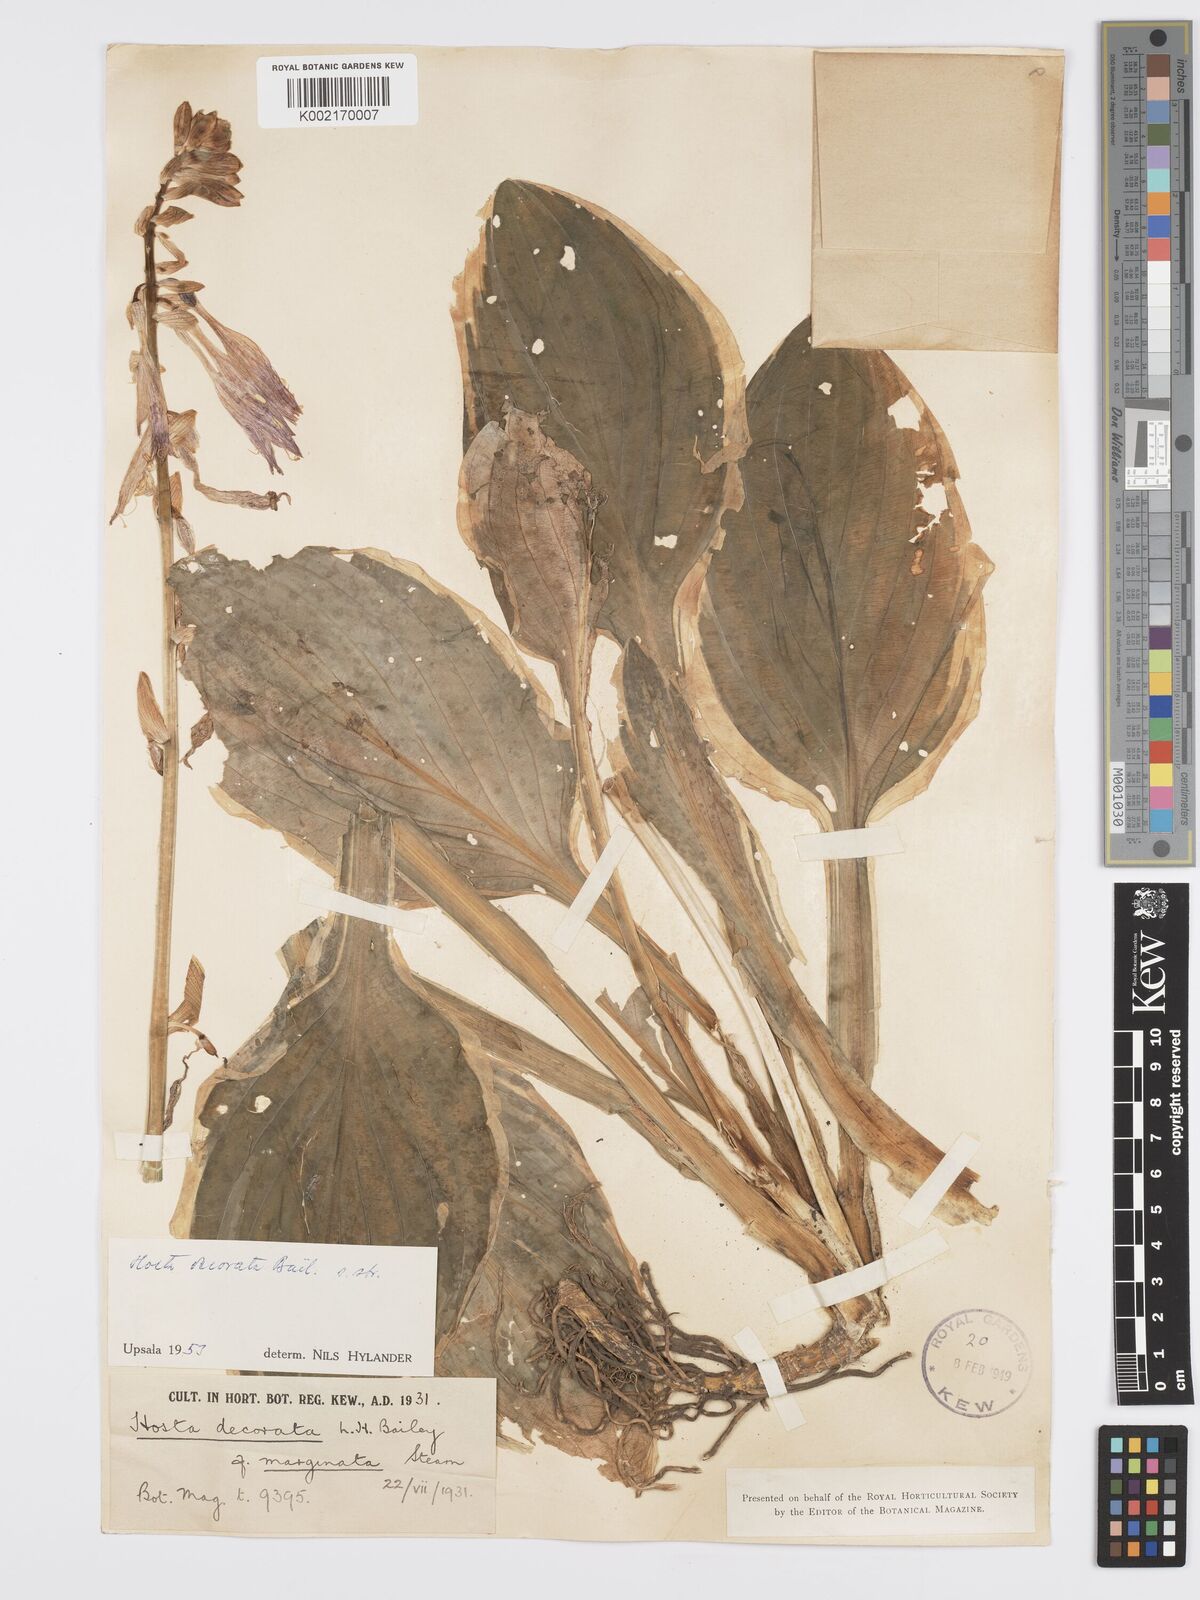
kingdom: Plantae
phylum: Tracheophyta
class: Liliopsida
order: Asparagales
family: Asparagaceae
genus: Hosta
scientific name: Hosta sieboldii
